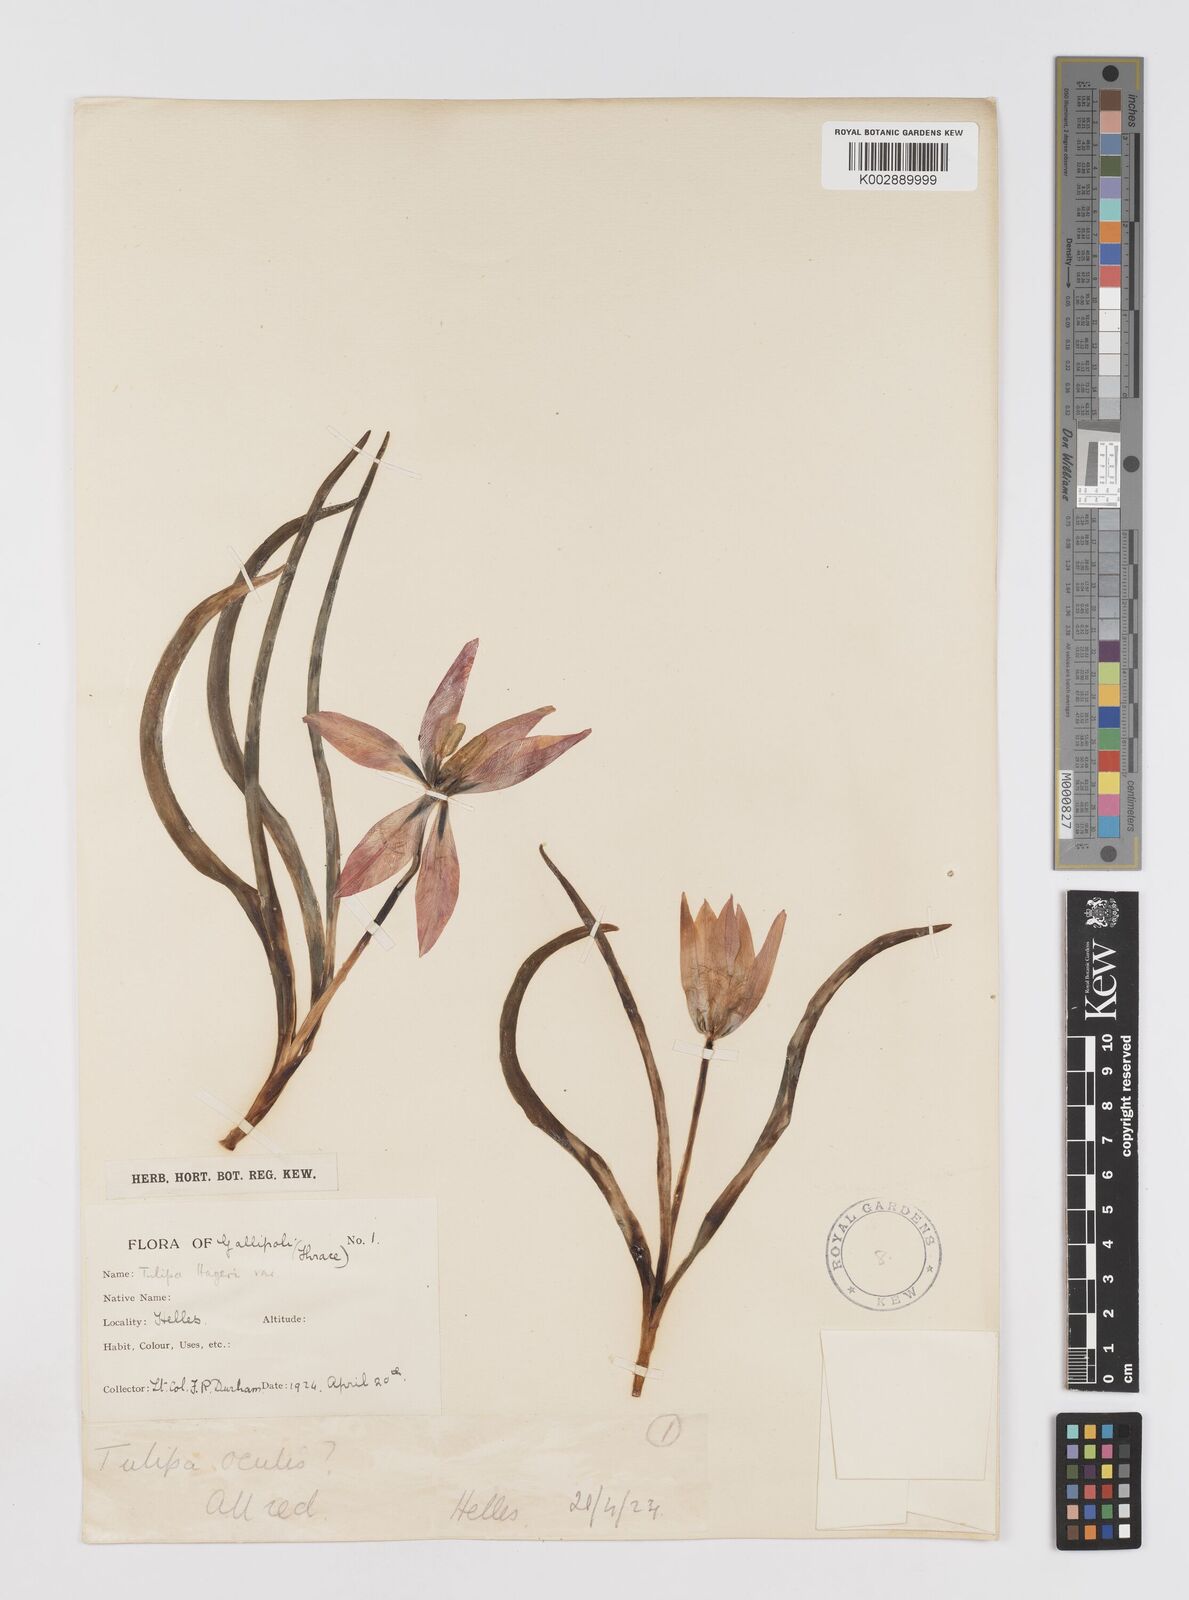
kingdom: Plantae
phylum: Tracheophyta
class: Liliopsida
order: Liliales
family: Liliaceae
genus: Tulipa
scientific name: Tulipa orphanidea
